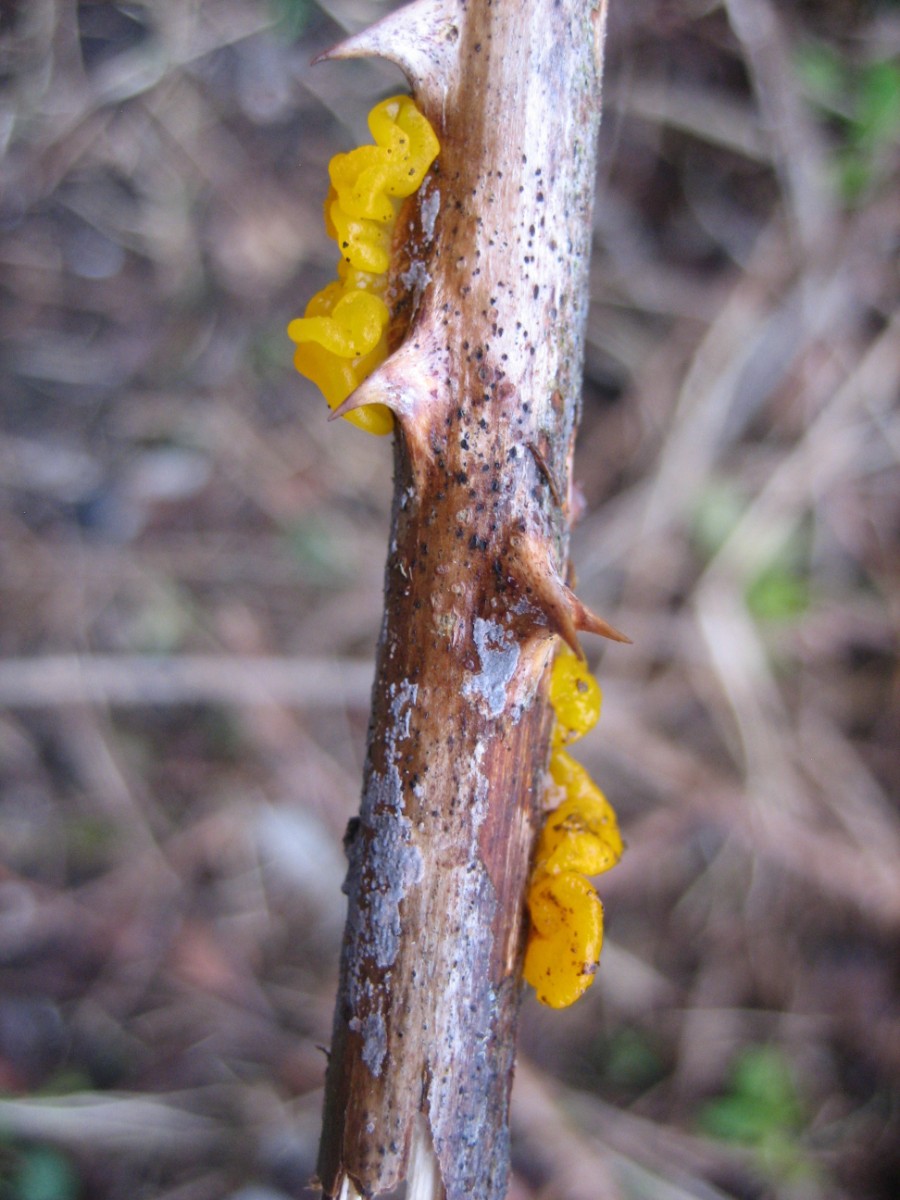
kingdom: Fungi
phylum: Basidiomycota
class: Tremellomycetes
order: Tremellales
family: Tremellaceae
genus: Tremella
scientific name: Tremella mesenterica
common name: gul bævresvamp
